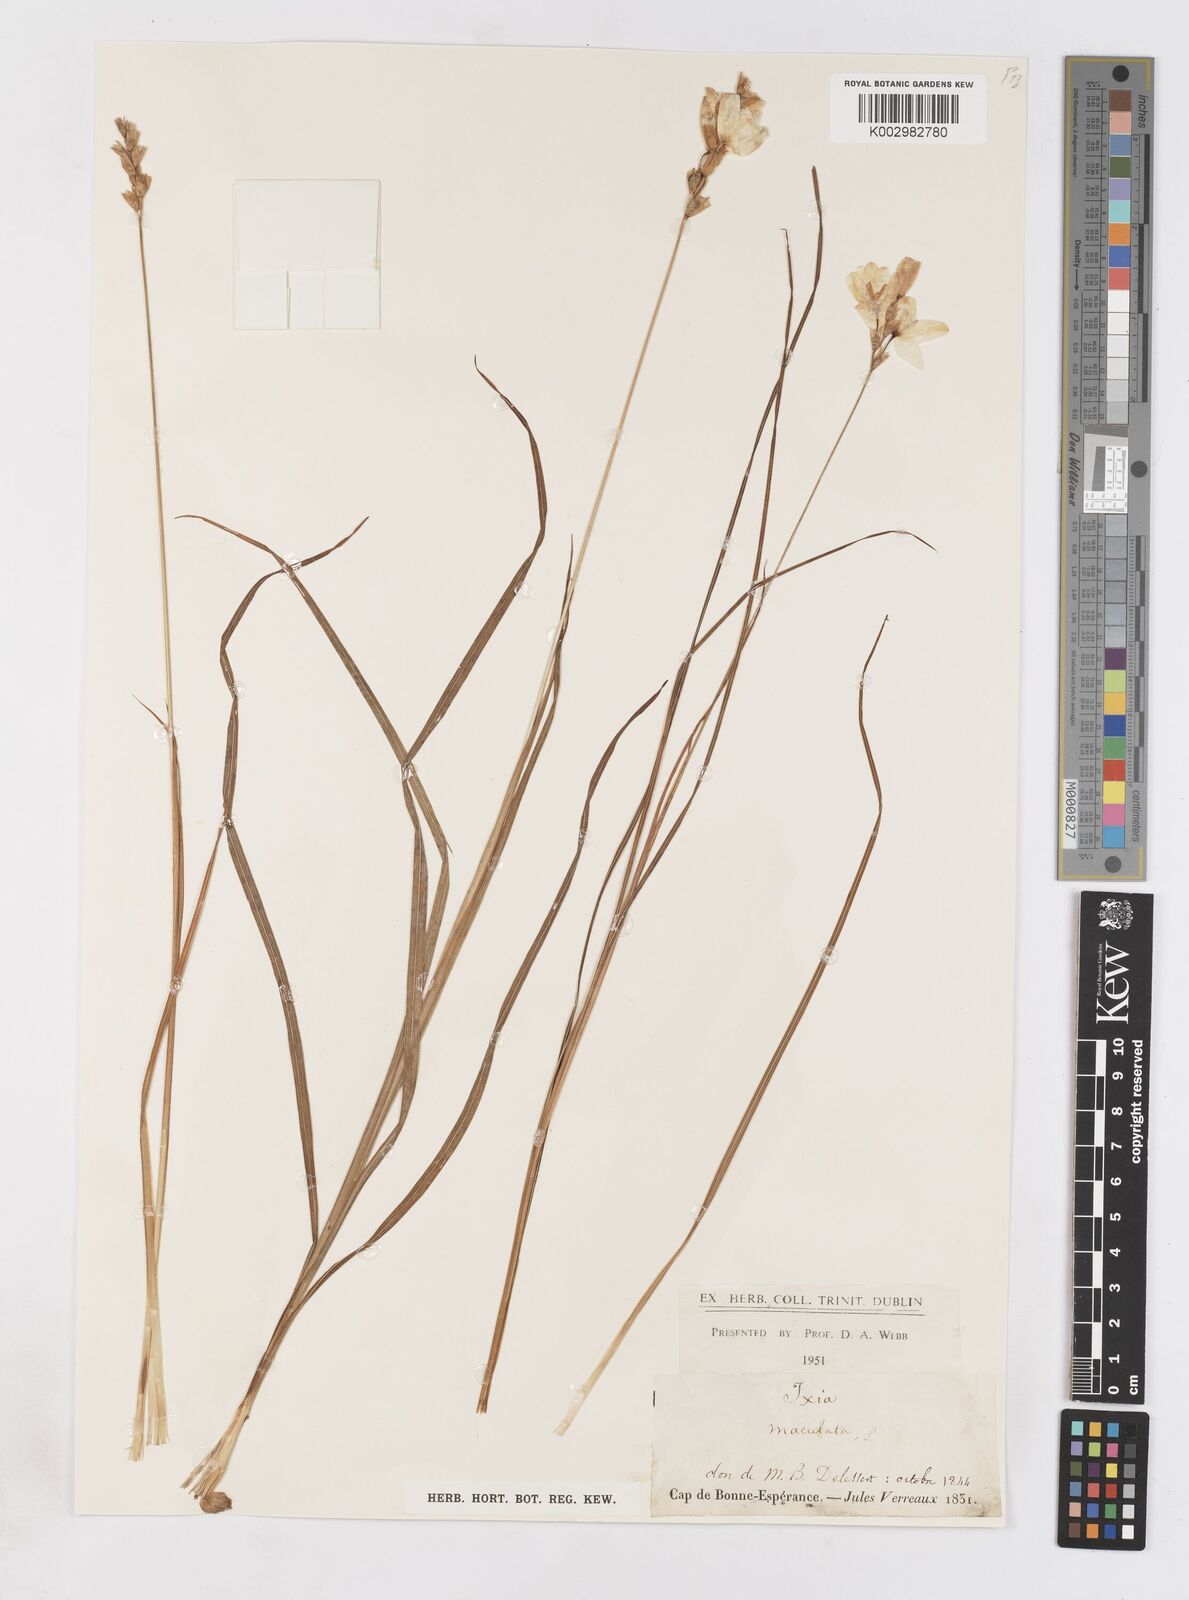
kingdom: Plantae
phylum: Tracheophyta
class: Liliopsida
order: Asparagales
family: Iridaceae
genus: Ixia
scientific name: Ixia maculata
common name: Spotted african cornlily
